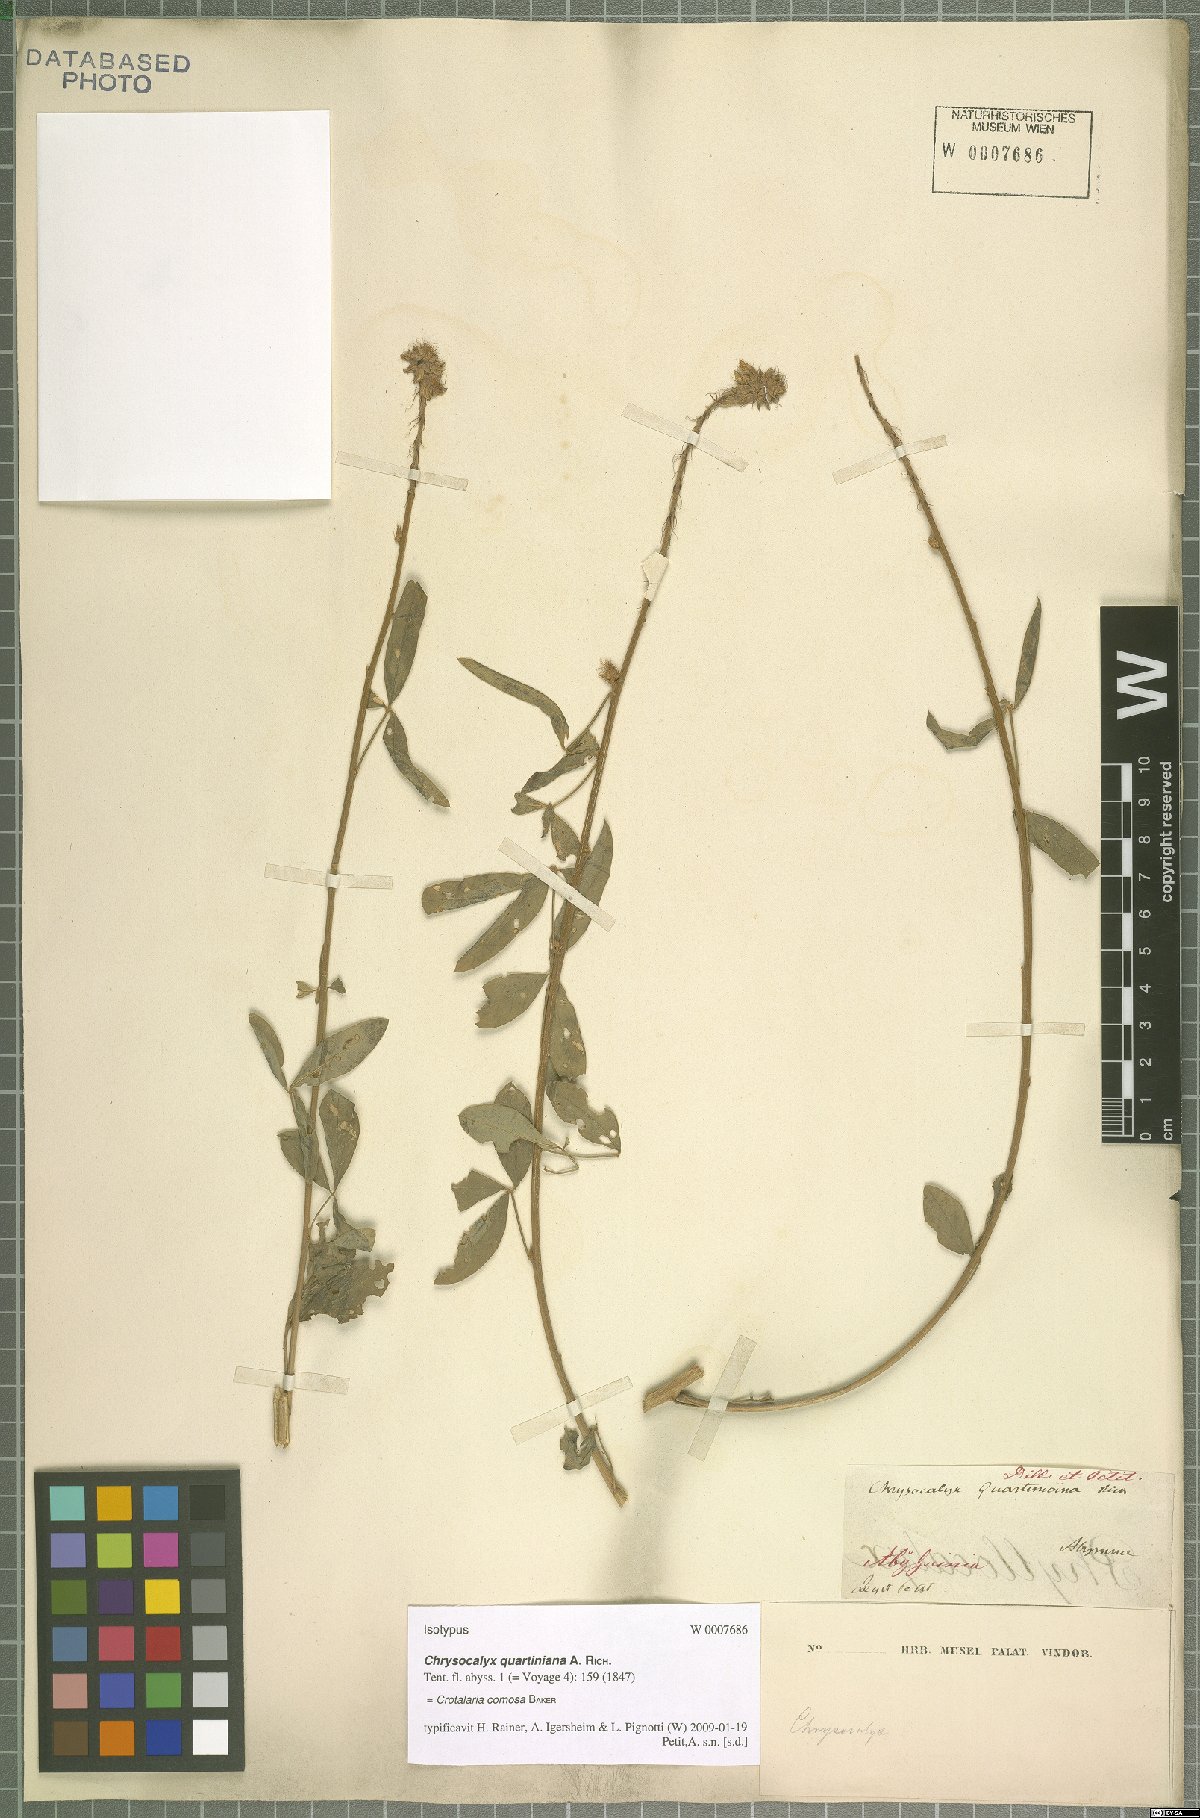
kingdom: Plantae
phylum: Tracheophyta
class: Magnoliopsida
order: Fabales
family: Fabaceae
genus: Crotalaria
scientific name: Crotalaria comosa
